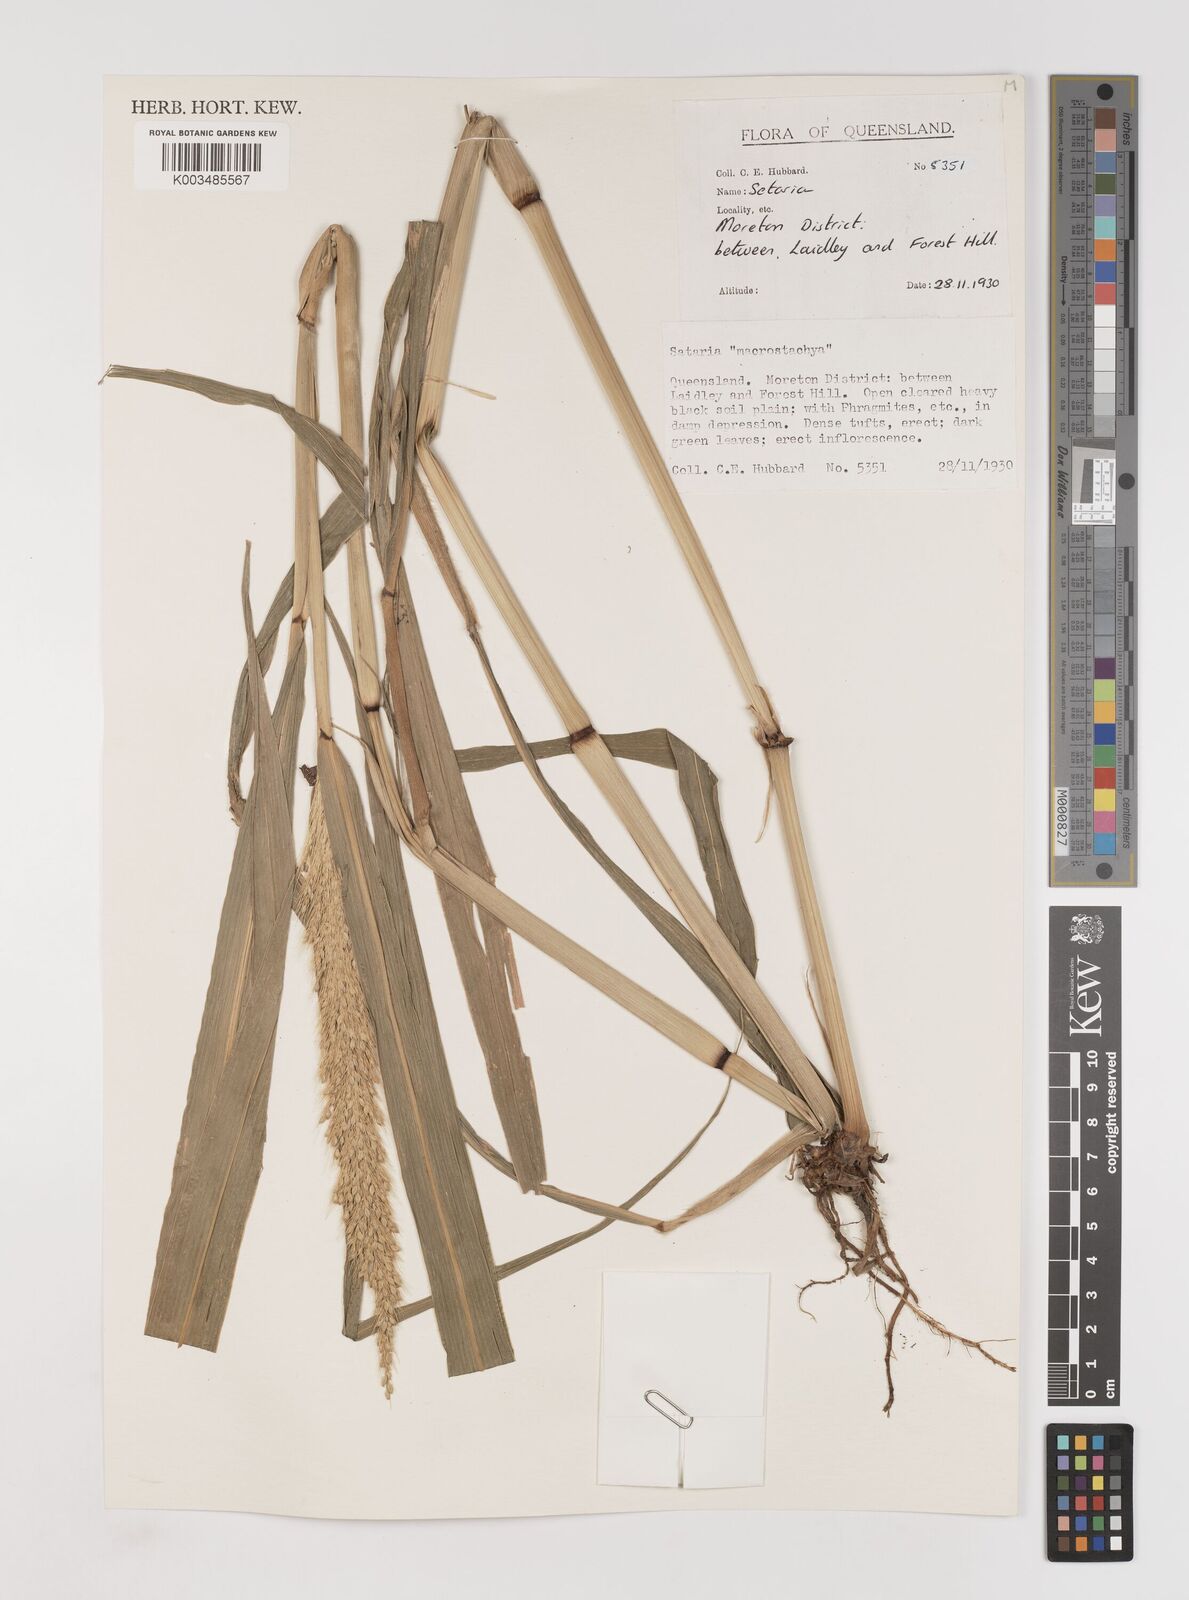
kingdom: Plantae
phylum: Tracheophyta
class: Liliopsida
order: Poales
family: Poaceae
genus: Setaria
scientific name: Setaria
